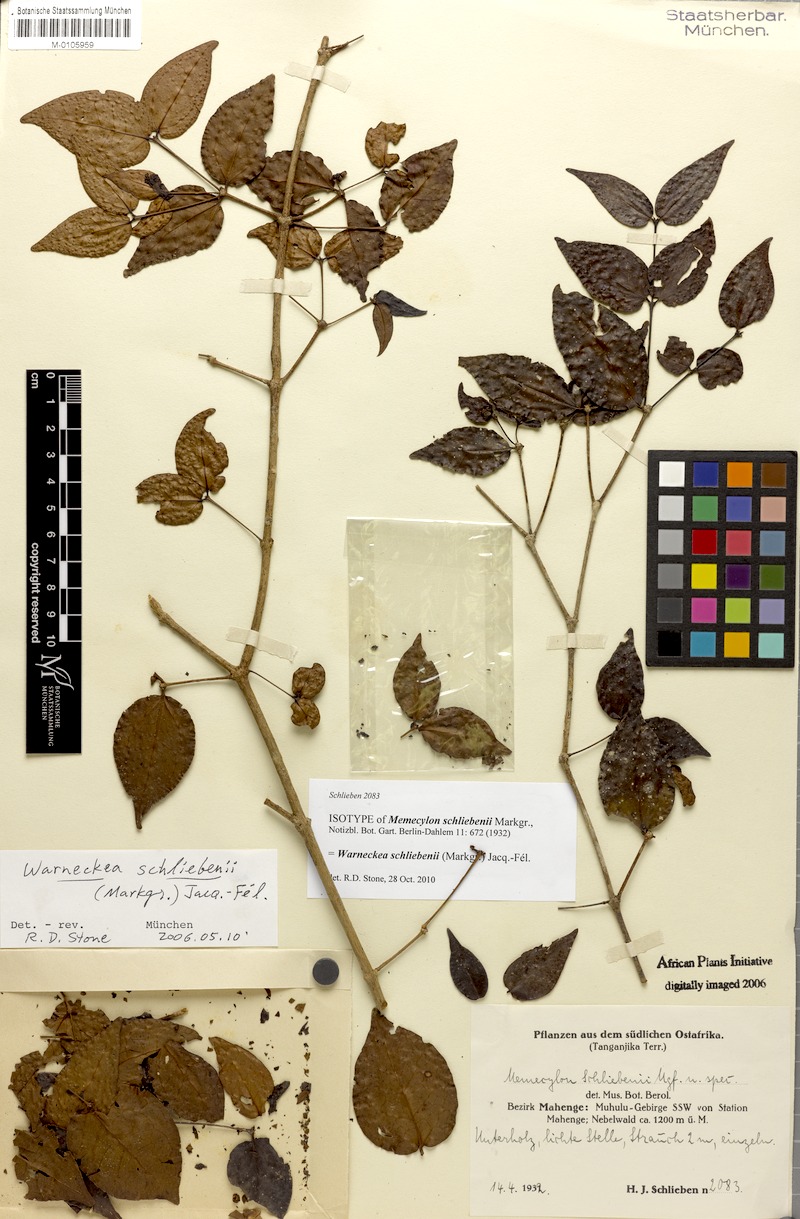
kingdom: Plantae
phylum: Tracheophyta
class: Magnoliopsida
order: Myrtales
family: Melastomataceae
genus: Warneckea
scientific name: Warneckea schliebenii
